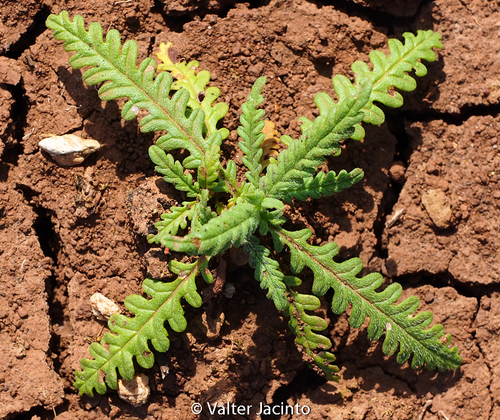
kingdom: Plantae
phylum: Tracheophyta
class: Magnoliopsida
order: Lamiales
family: Lamiaceae
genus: Cleonia
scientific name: Cleonia lusitanica
